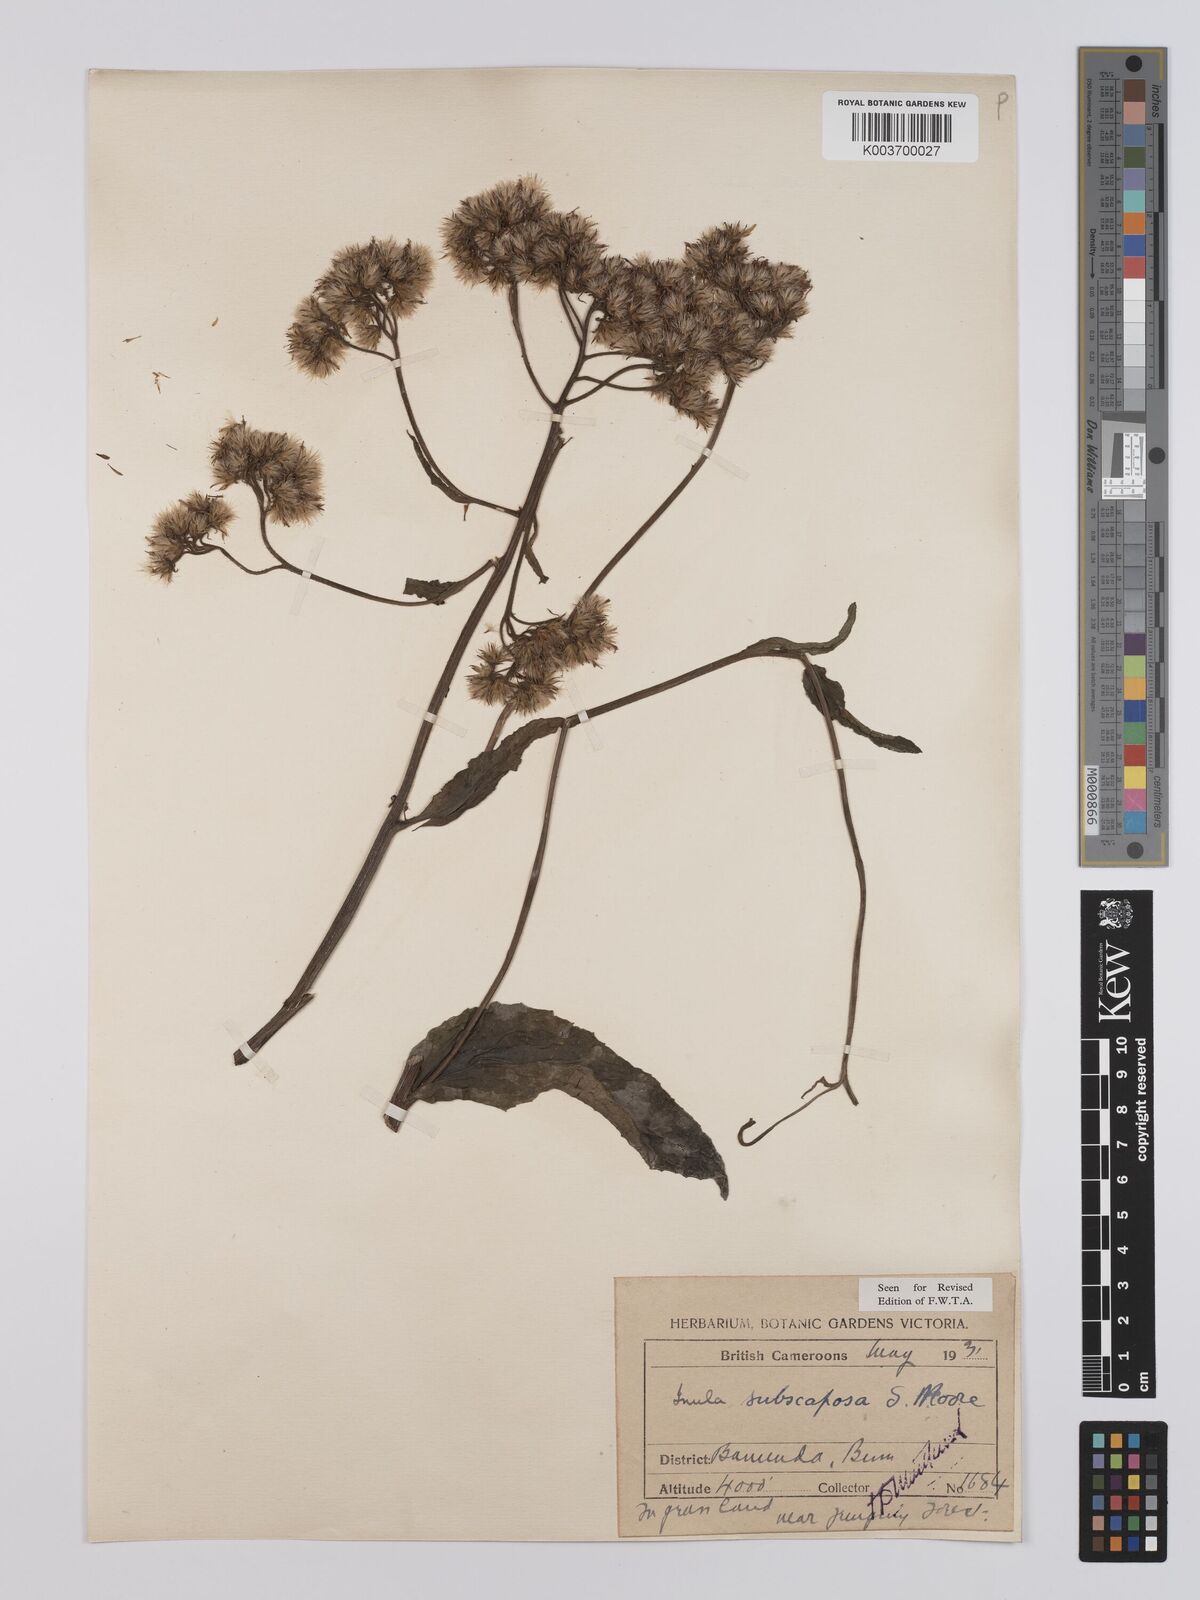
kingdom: Plantae
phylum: Tracheophyta
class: Magnoliopsida
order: Asterales
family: Asteraceae
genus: Monactinocephalus
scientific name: Monactinocephalus paniculatus
